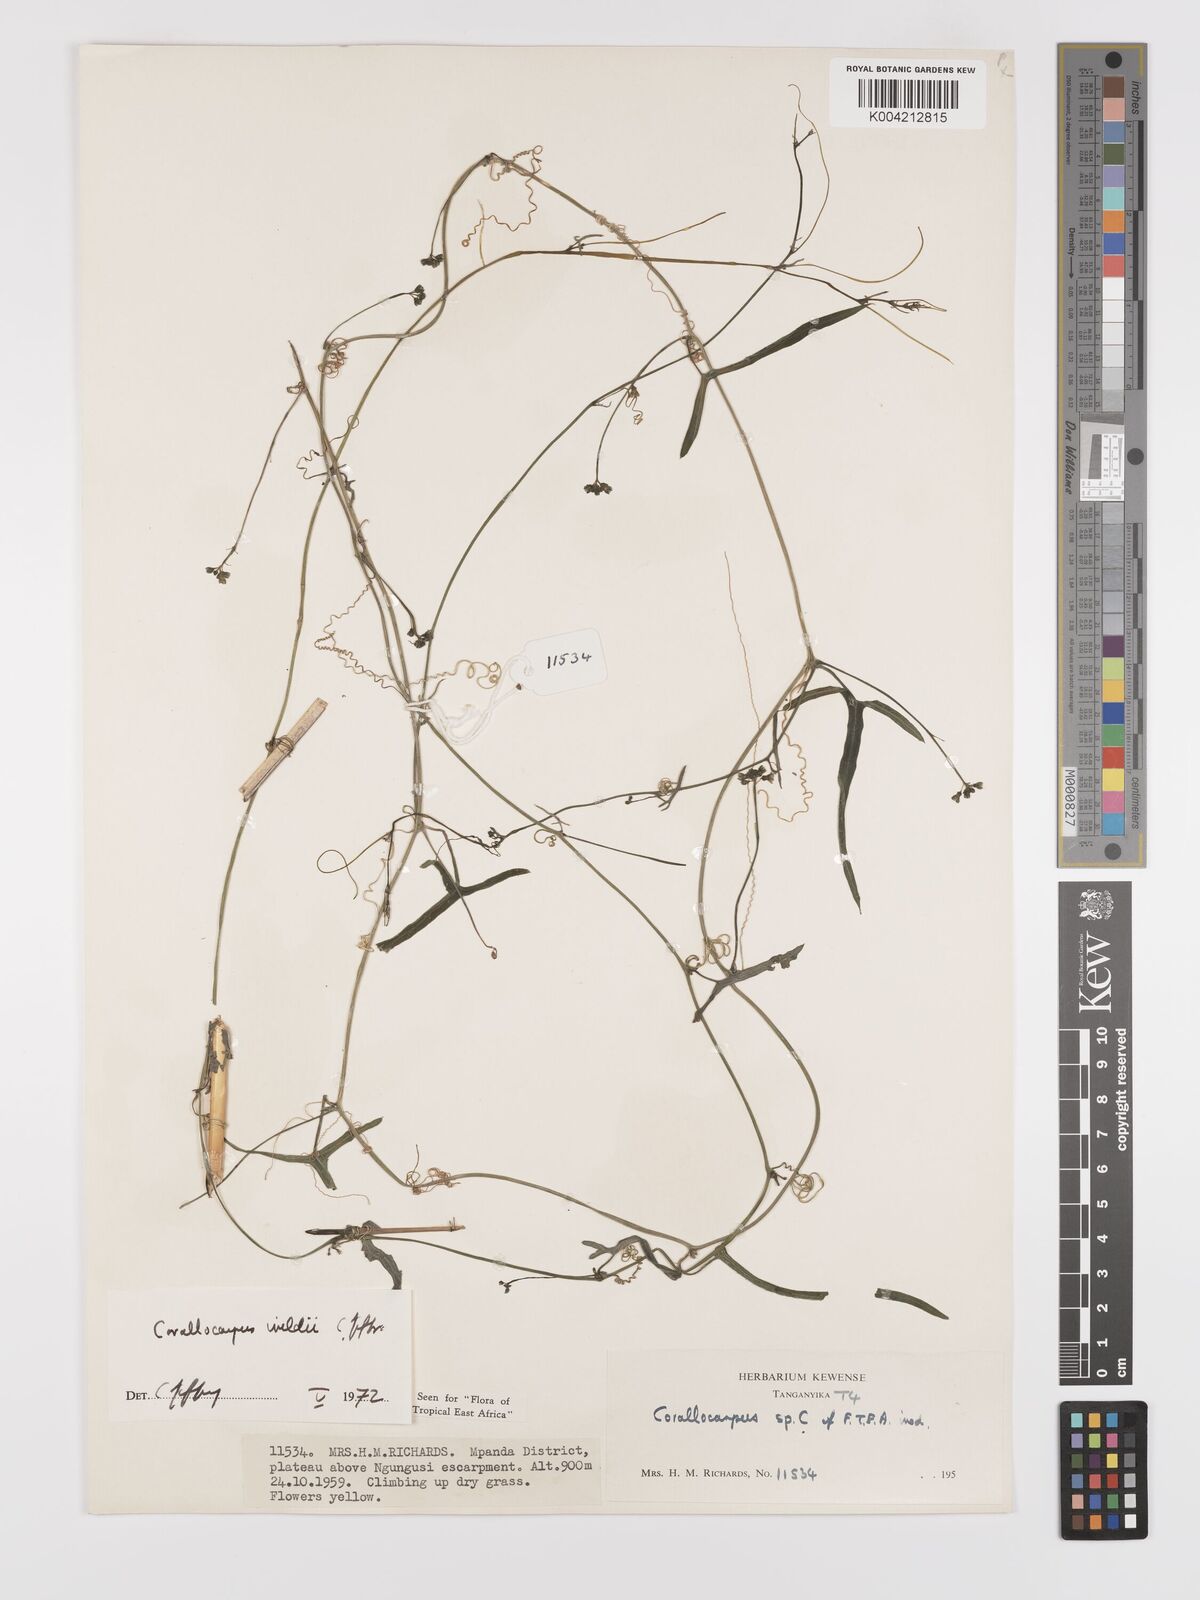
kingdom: Plantae
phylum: Tracheophyta
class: Magnoliopsida
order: Cucurbitales
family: Cucurbitaceae
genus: Corallocarpus
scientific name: Corallocarpus tenuissimus
